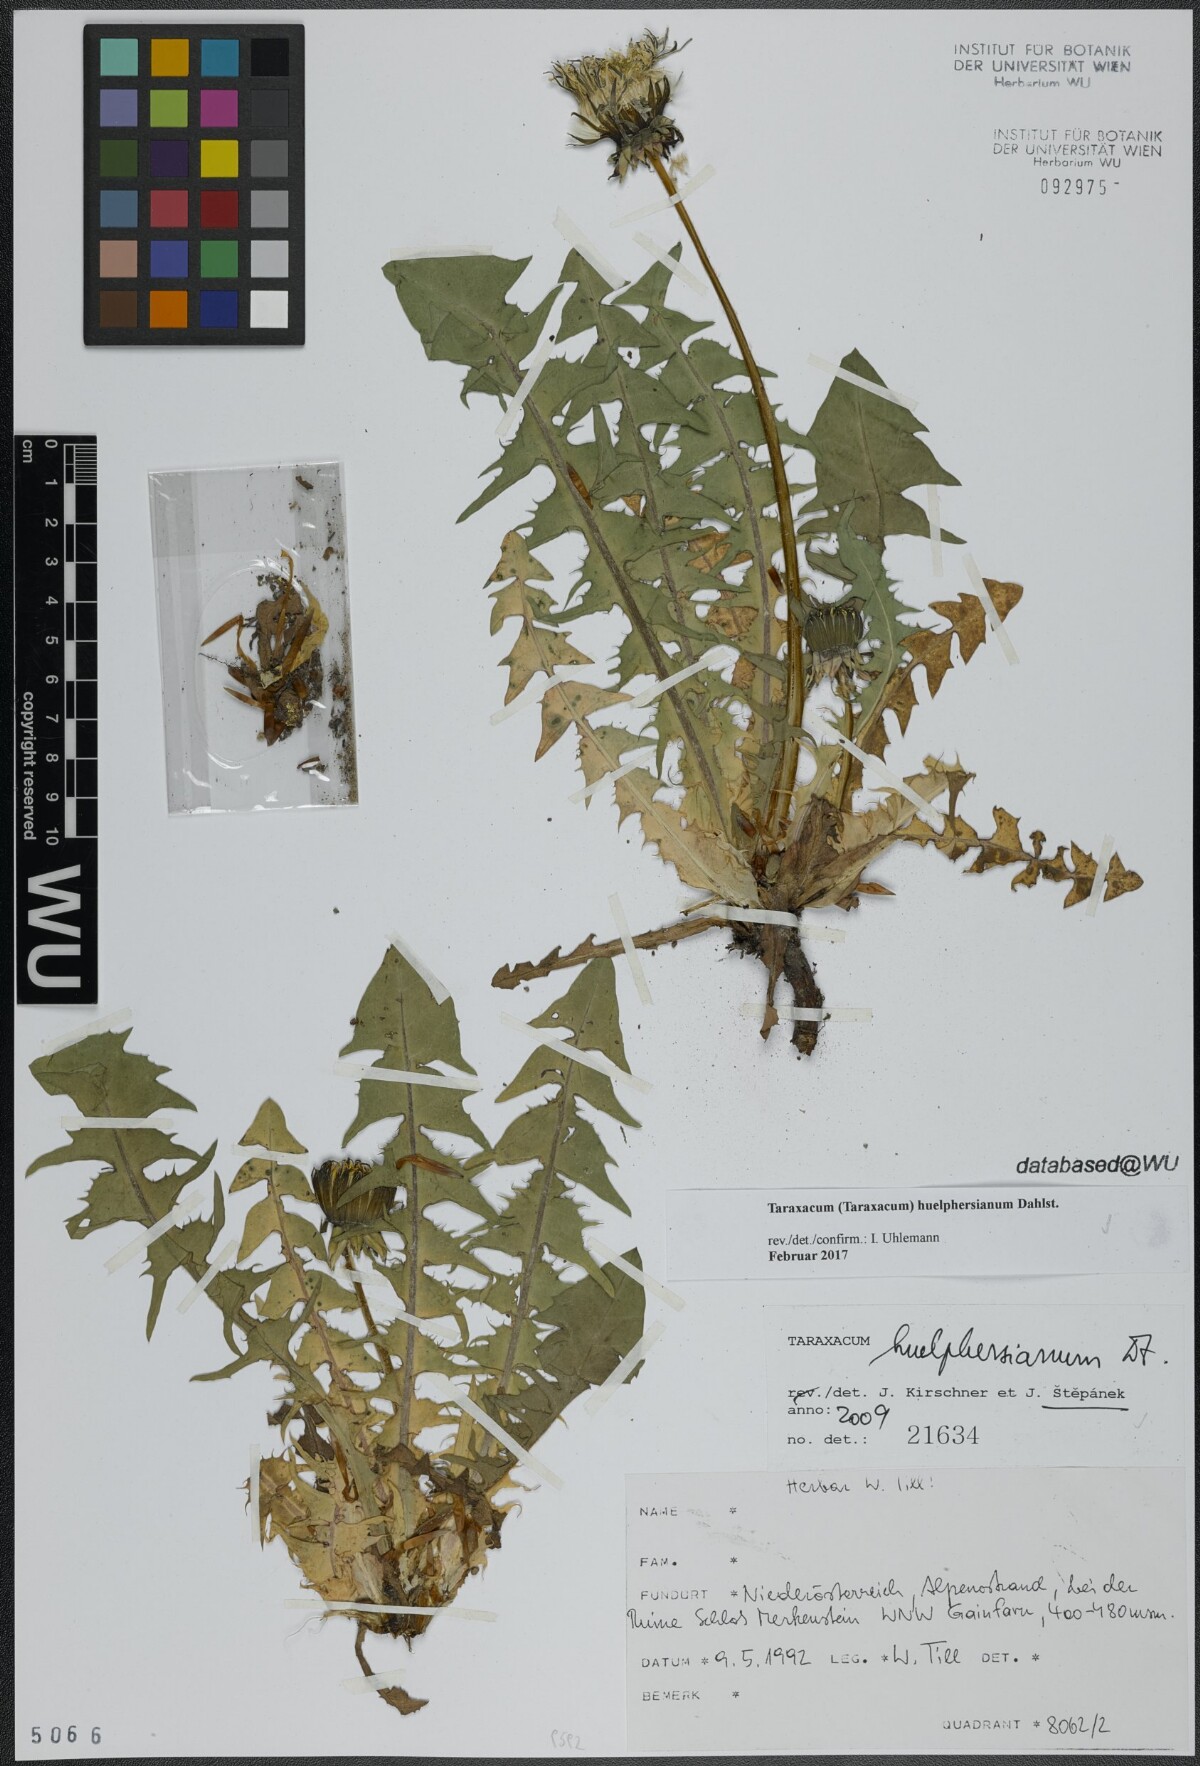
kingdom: Plantae
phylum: Tracheophyta
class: Magnoliopsida
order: Asterales
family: Asteraceae
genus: Taraxacum
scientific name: Taraxacum huelphersianum
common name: Hülphers's dandelion
